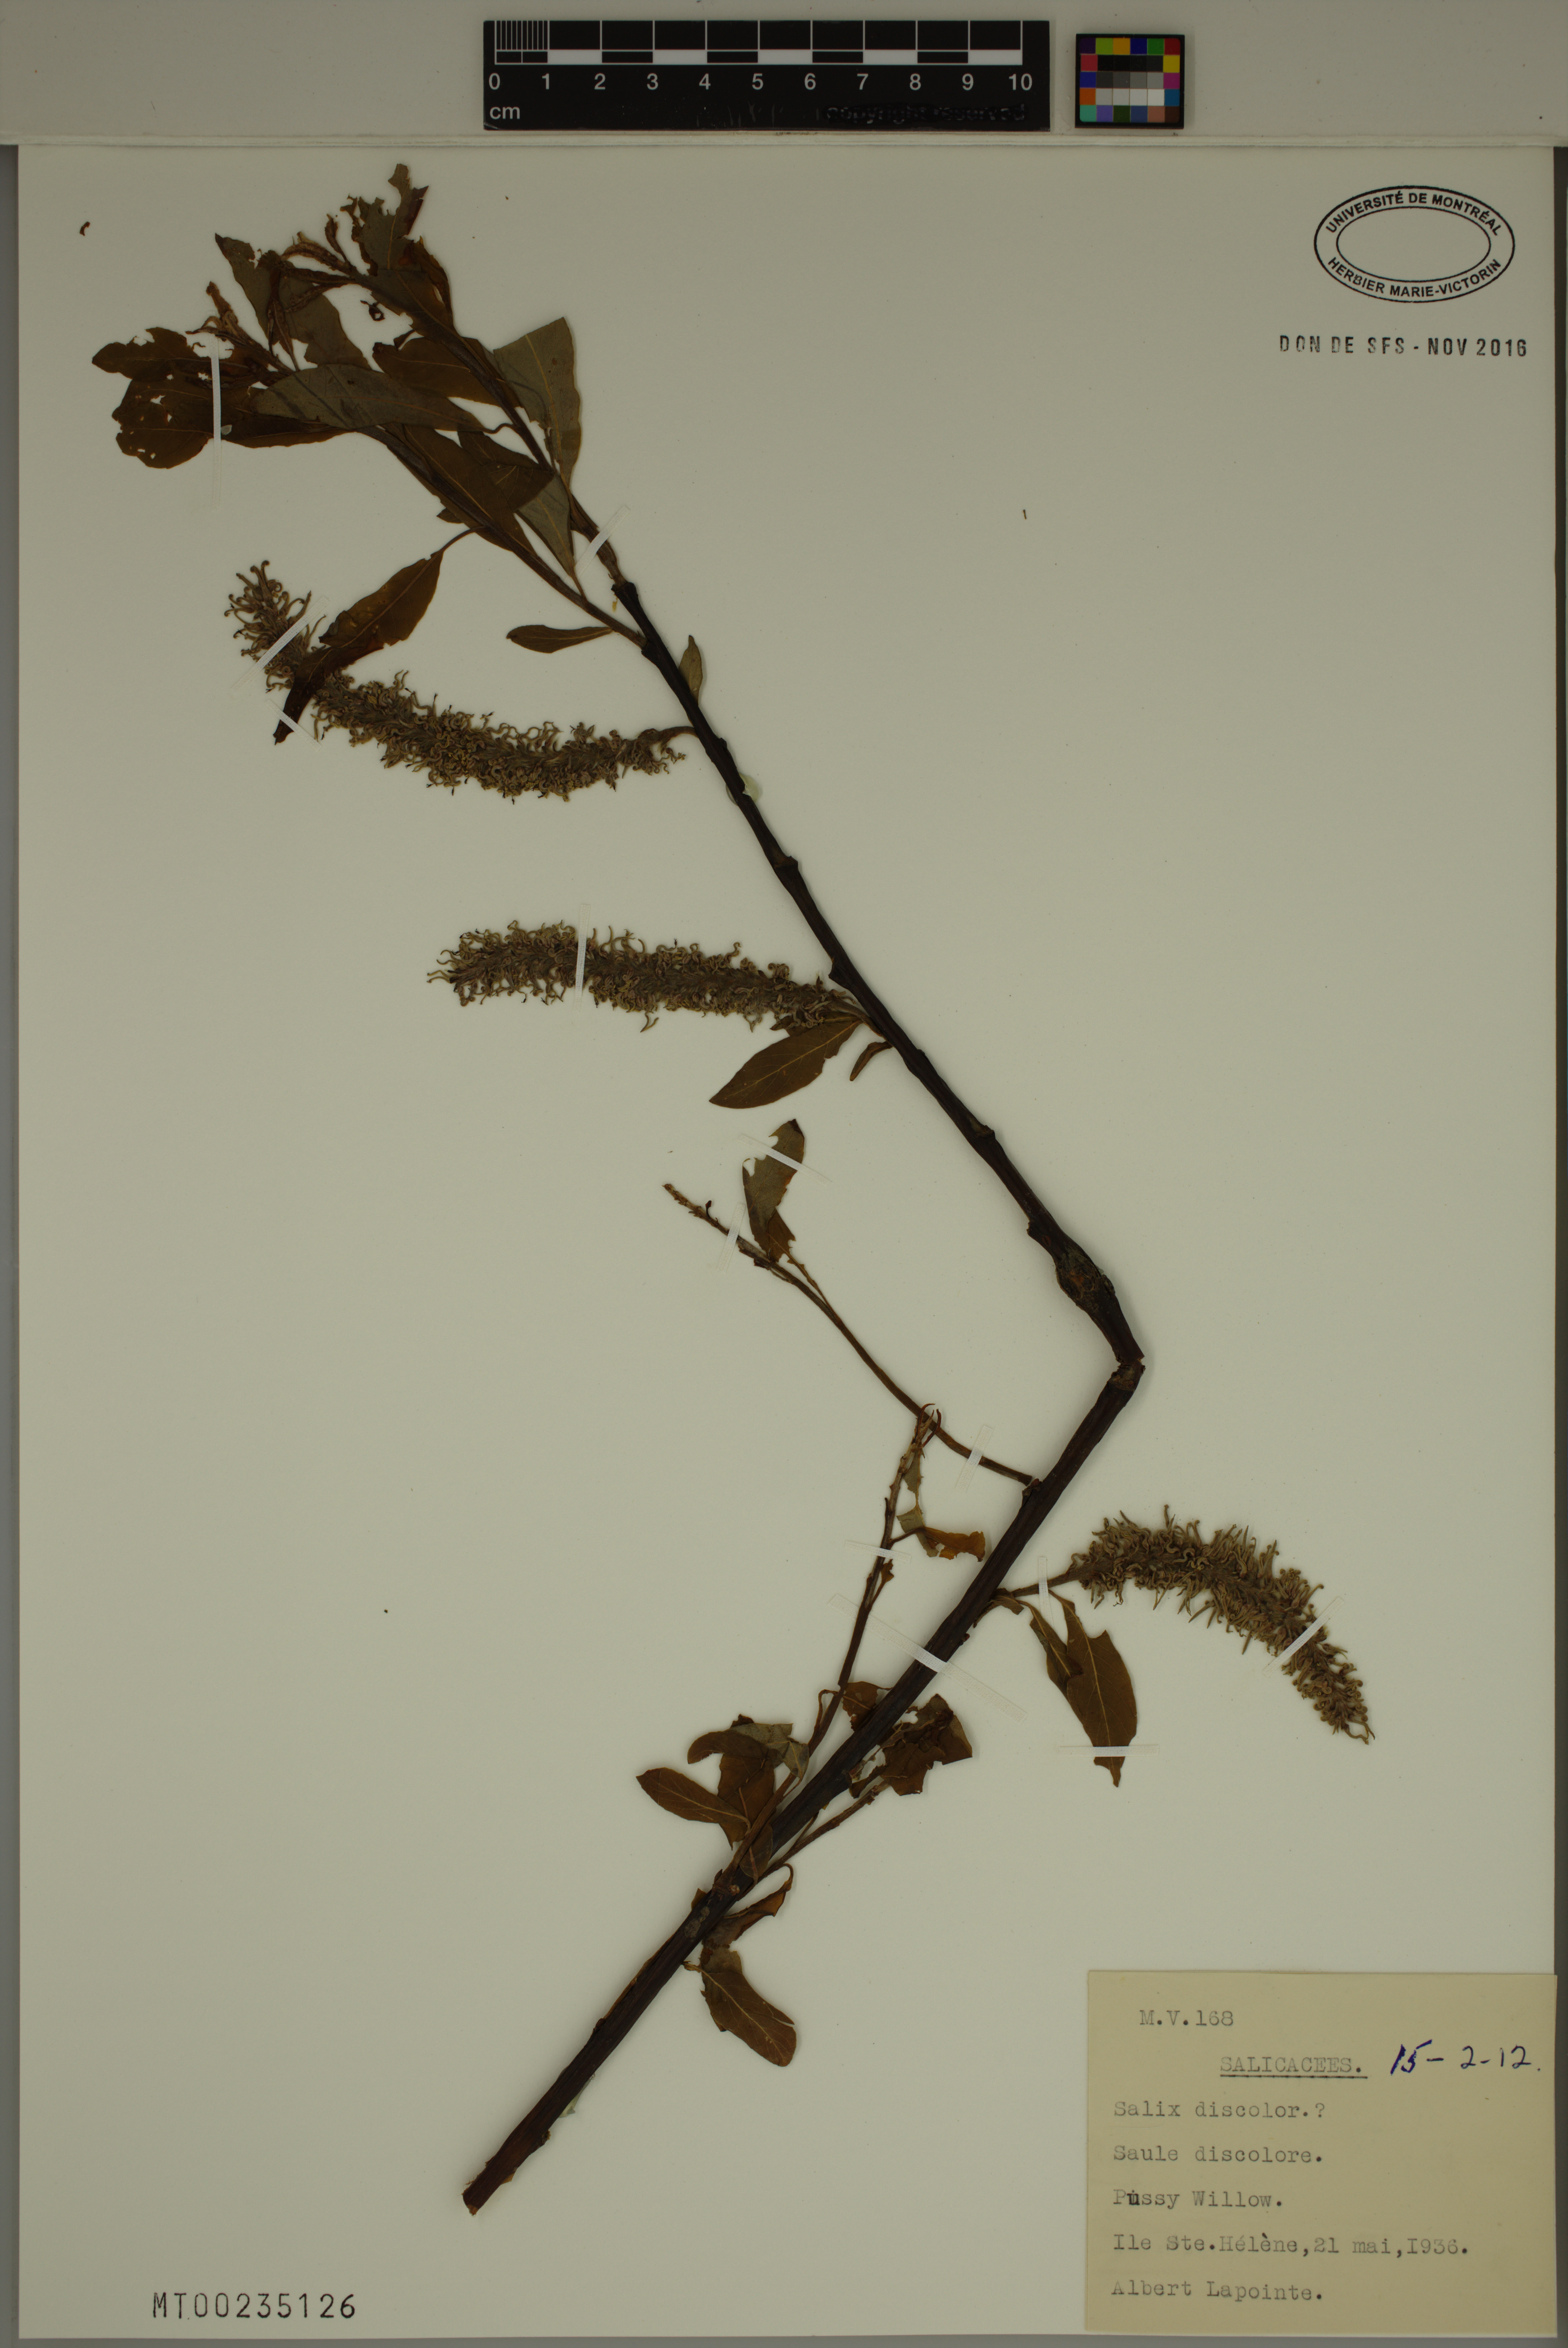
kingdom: Plantae
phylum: Tracheophyta
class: Magnoliopsida
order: Malpighiales
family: Salicaceae
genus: Salix
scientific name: Salix discolor
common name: Glaucous willow
